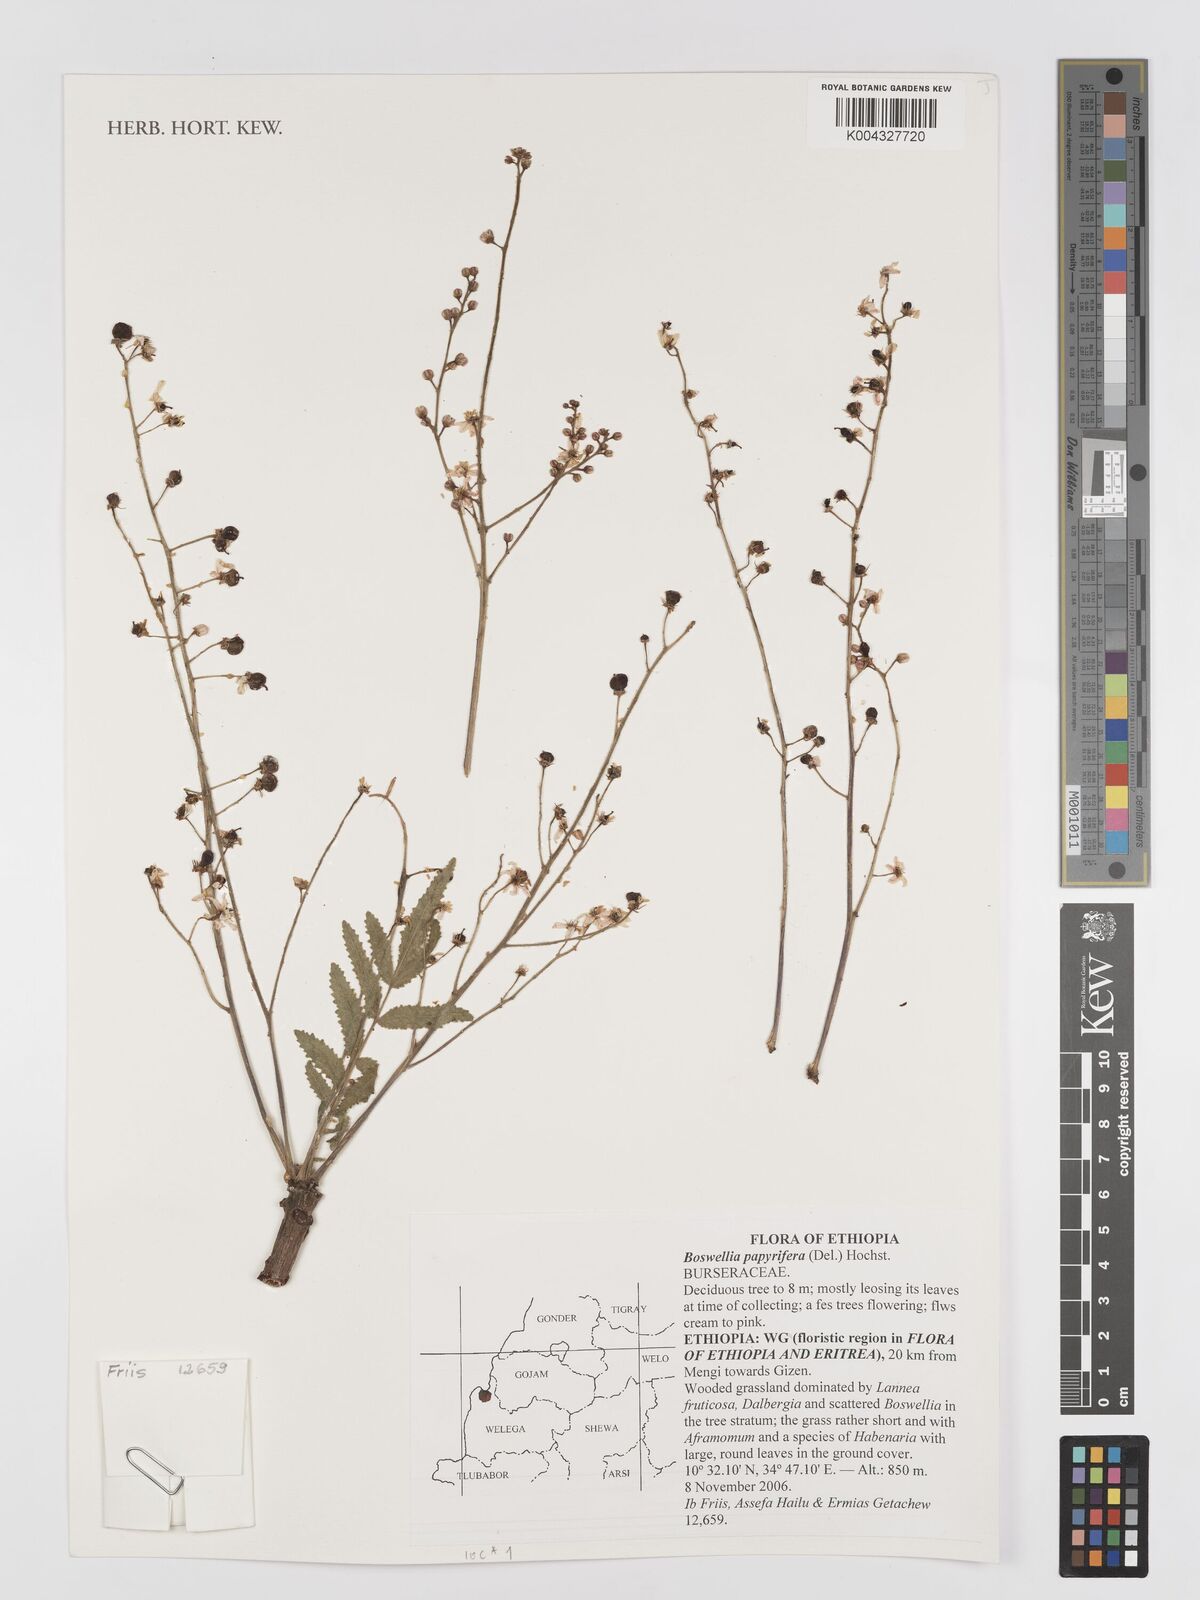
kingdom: Plantae
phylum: Tracheophyta
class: Magnoliopsida
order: Sapindales
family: Burseraceae
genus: Boswellia
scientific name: Boswellia papyrifera
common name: Sudanese frankincense
